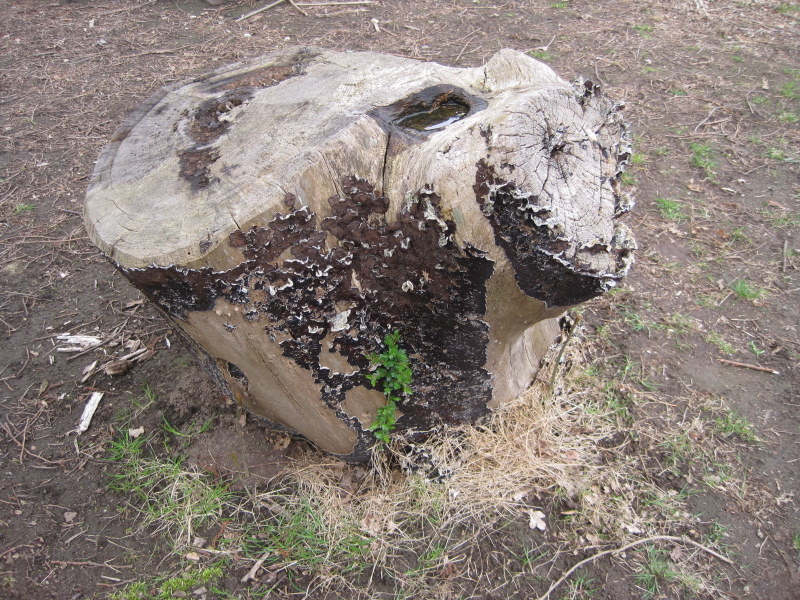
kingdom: Fungi
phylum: Basidiomycota
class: Agaricomycetes
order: Auriculariales
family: Auriculariaceae
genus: Auricularia
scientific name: Auricularia mesenterica
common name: håret judasøre
